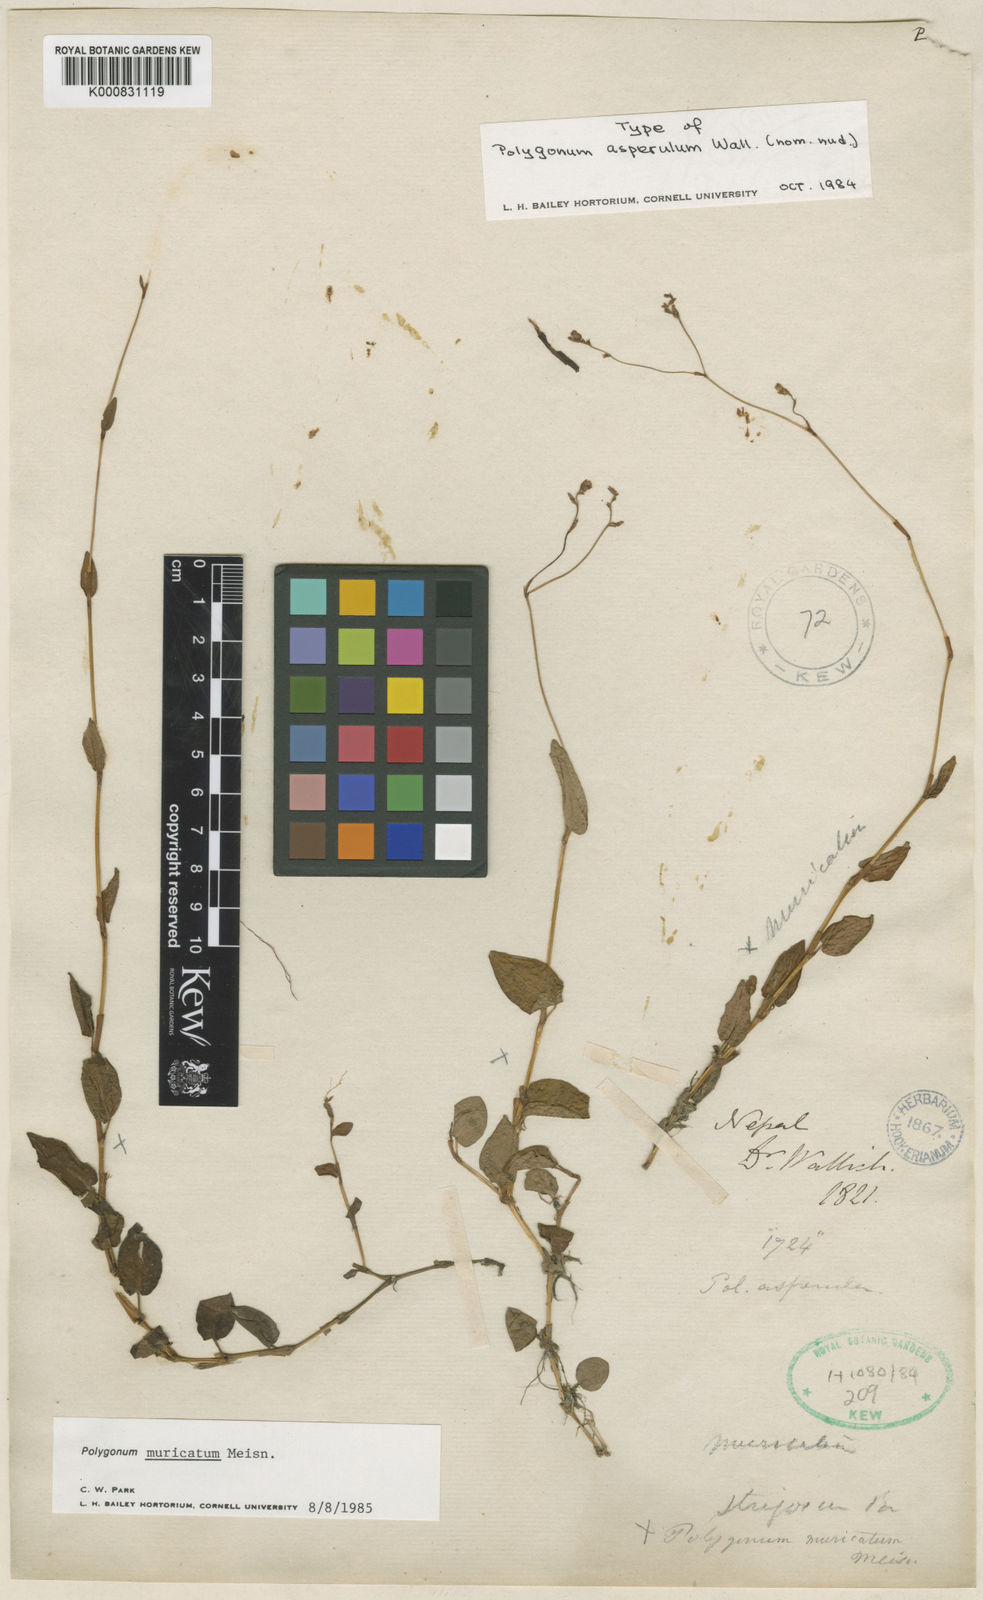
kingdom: Plantae
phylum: Tracheophyta
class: Magnoliopsida
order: Caryophyllales
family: Polygonaceae
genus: Persicaria
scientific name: Persicaria muricata
